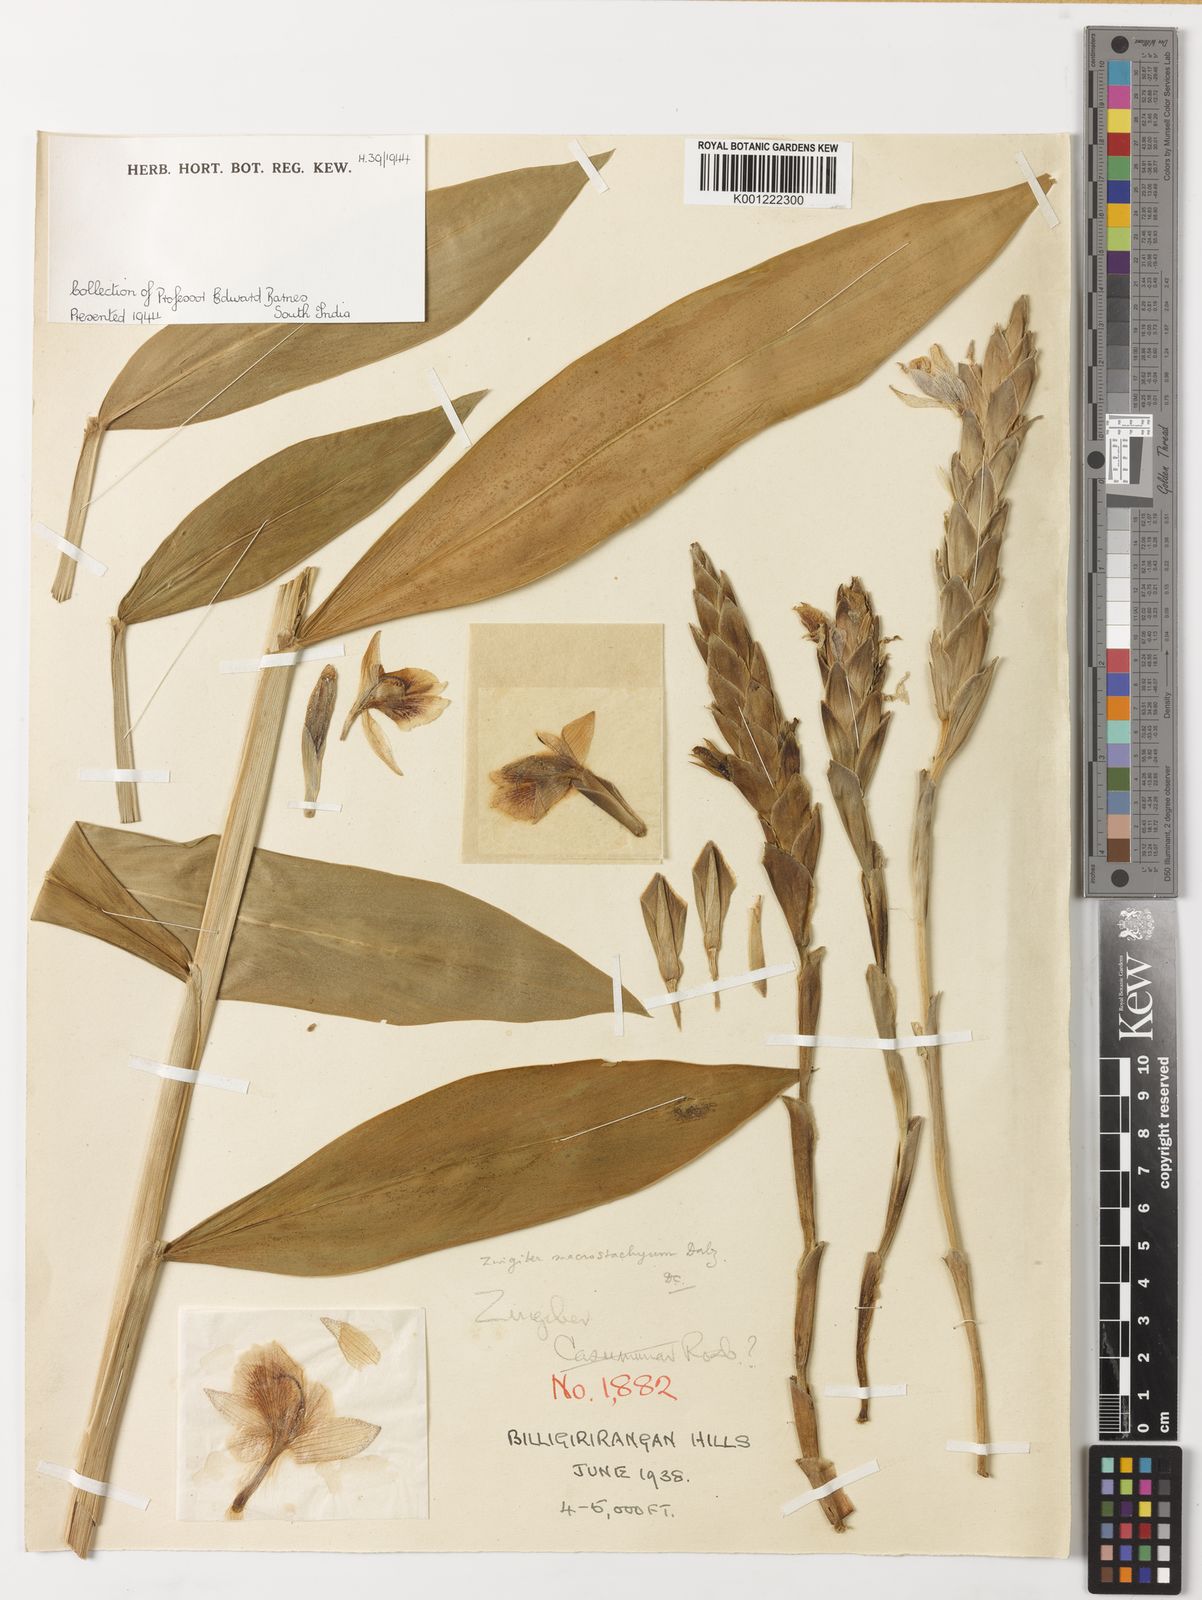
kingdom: Plantae
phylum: Tracheophyta
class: Liliopsida
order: Zingiberales
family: Zingiberaceae
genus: Zingiber
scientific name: Zingiber neesanum
